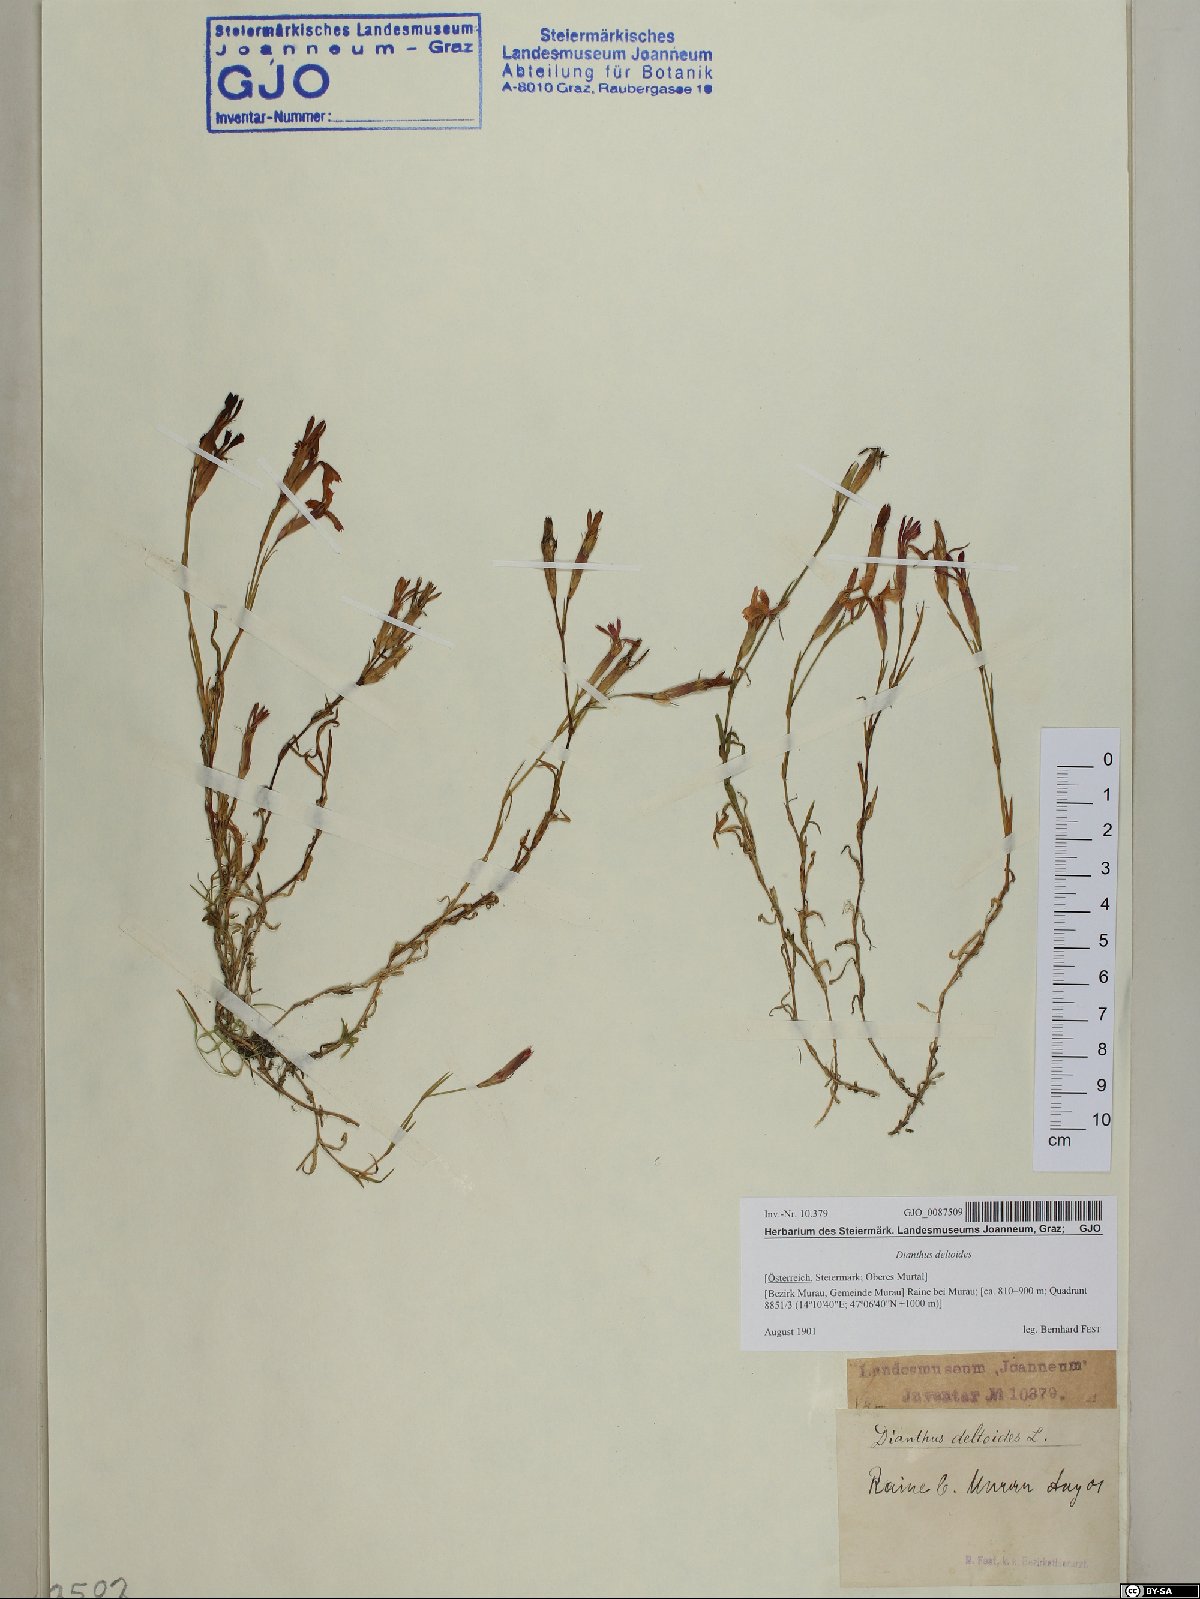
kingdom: Plantae
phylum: Tracheophyta
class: Magnoliopsida
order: Caryophyllales
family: Caryophyllaceae
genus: Dianthus
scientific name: Dianthus deltoides
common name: Maiden pink
